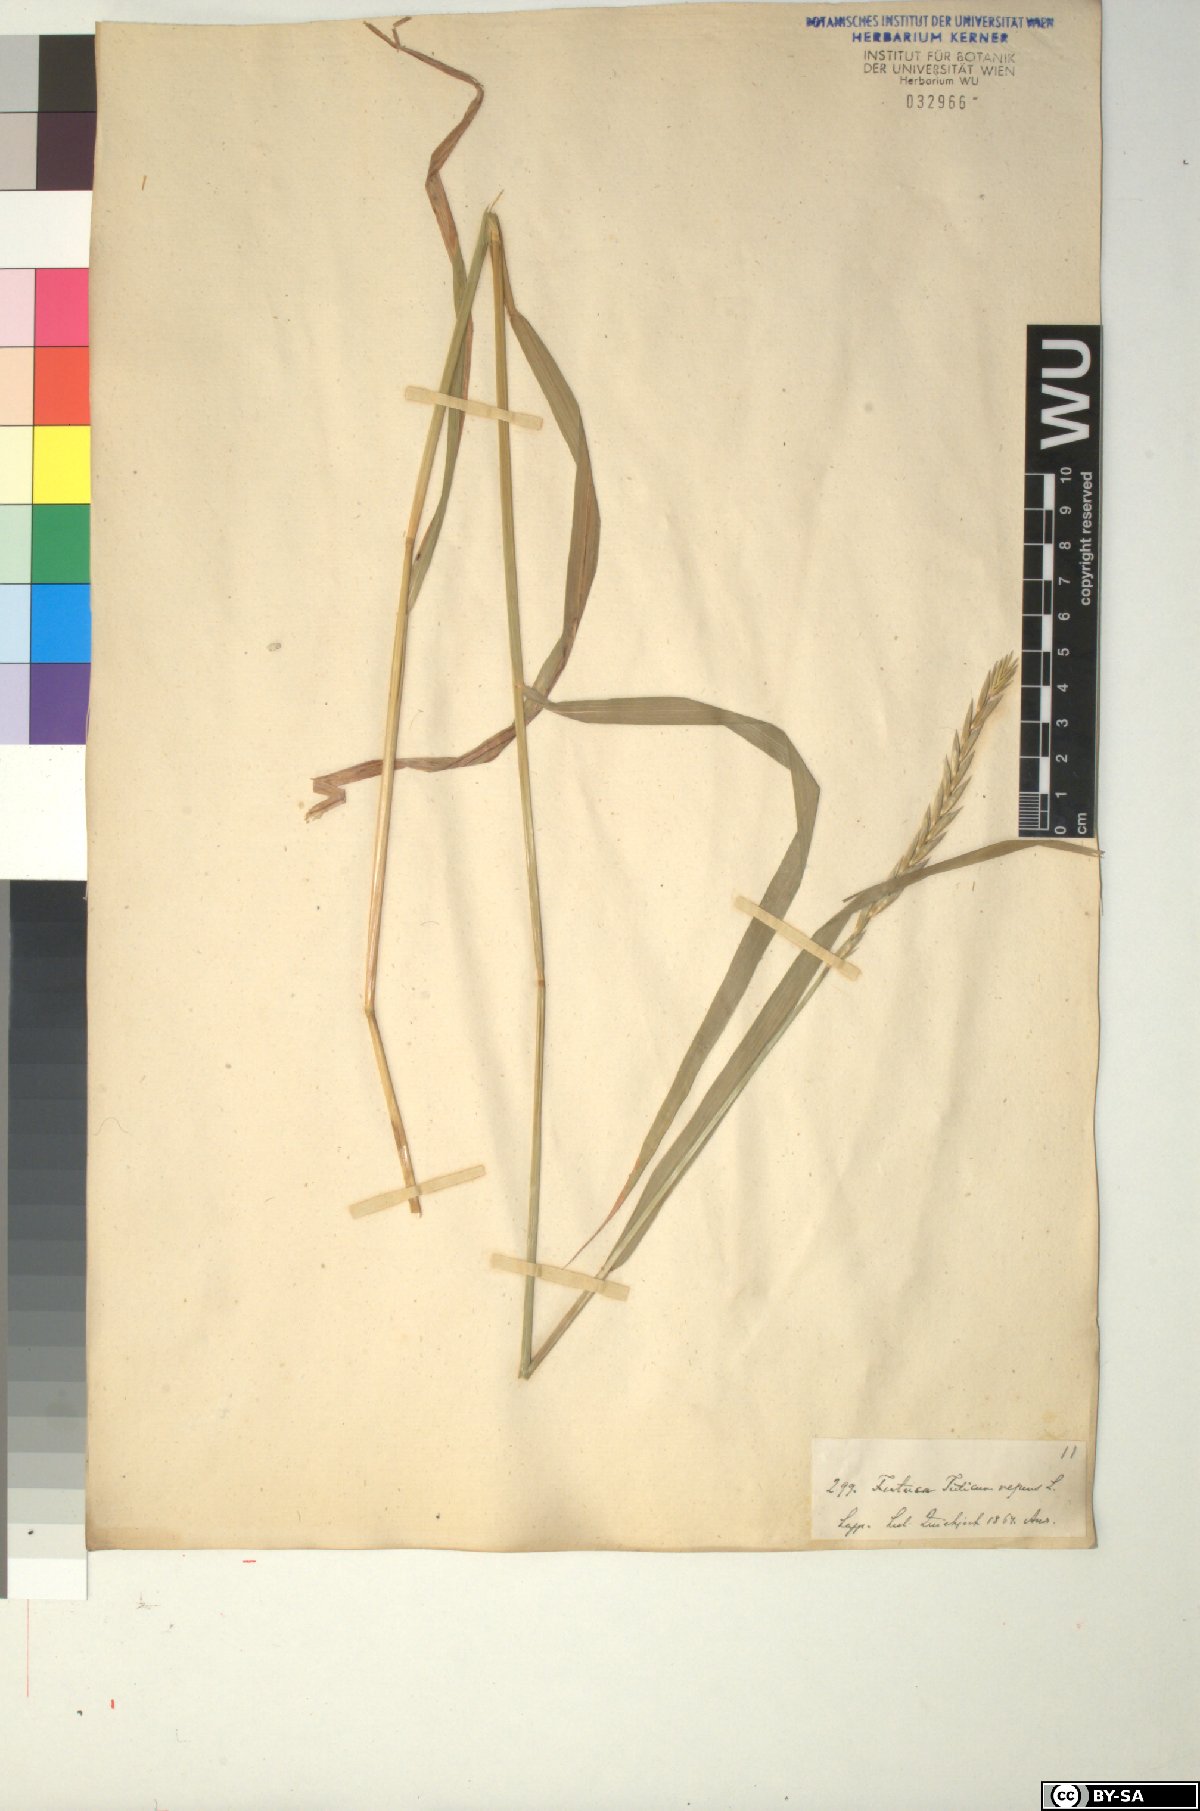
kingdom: Plantae
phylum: Tracheophyta
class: Liliopsida
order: Poales
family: Poaceae
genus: Elymus
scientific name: Elymus repens
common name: Quackgrass
